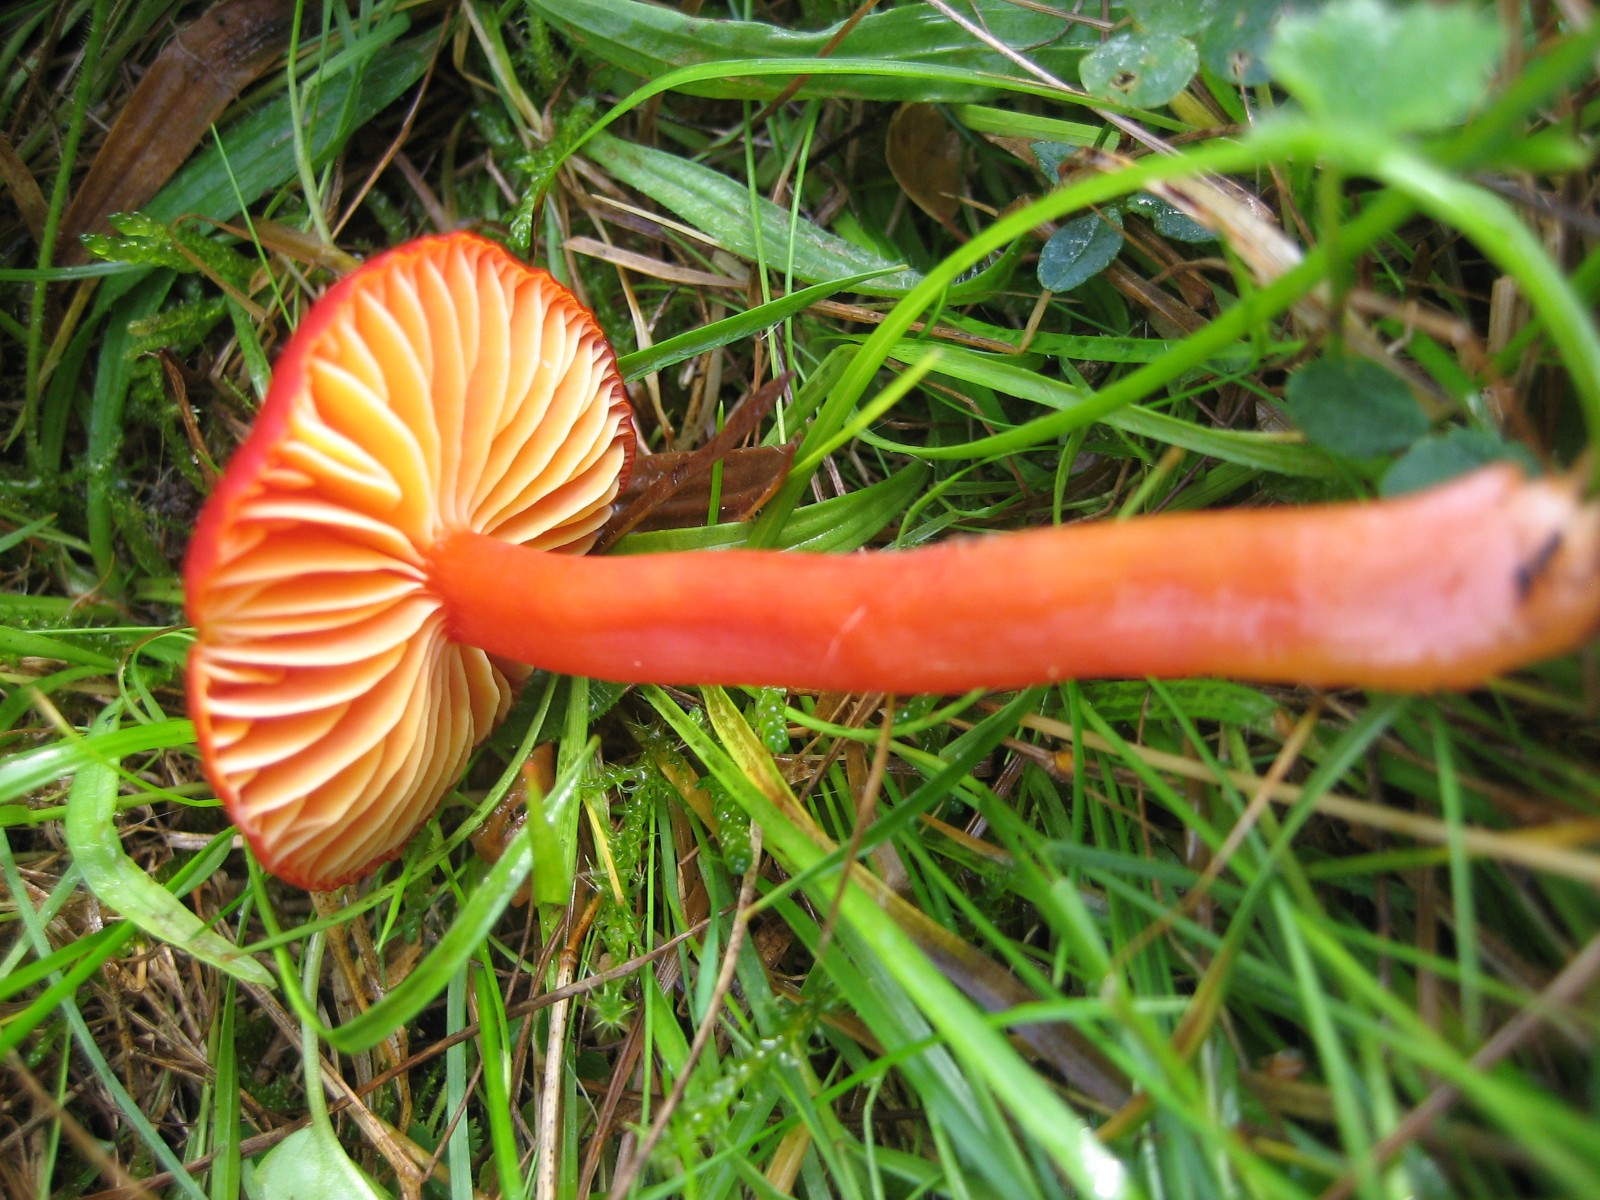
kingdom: Fungi
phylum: Basidiomycota
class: Agaricomycetes
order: Agaricales
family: Hygrophoraceae
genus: Hygrocybe
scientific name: Hygrocybe coccinea
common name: cinnober-vokshat
